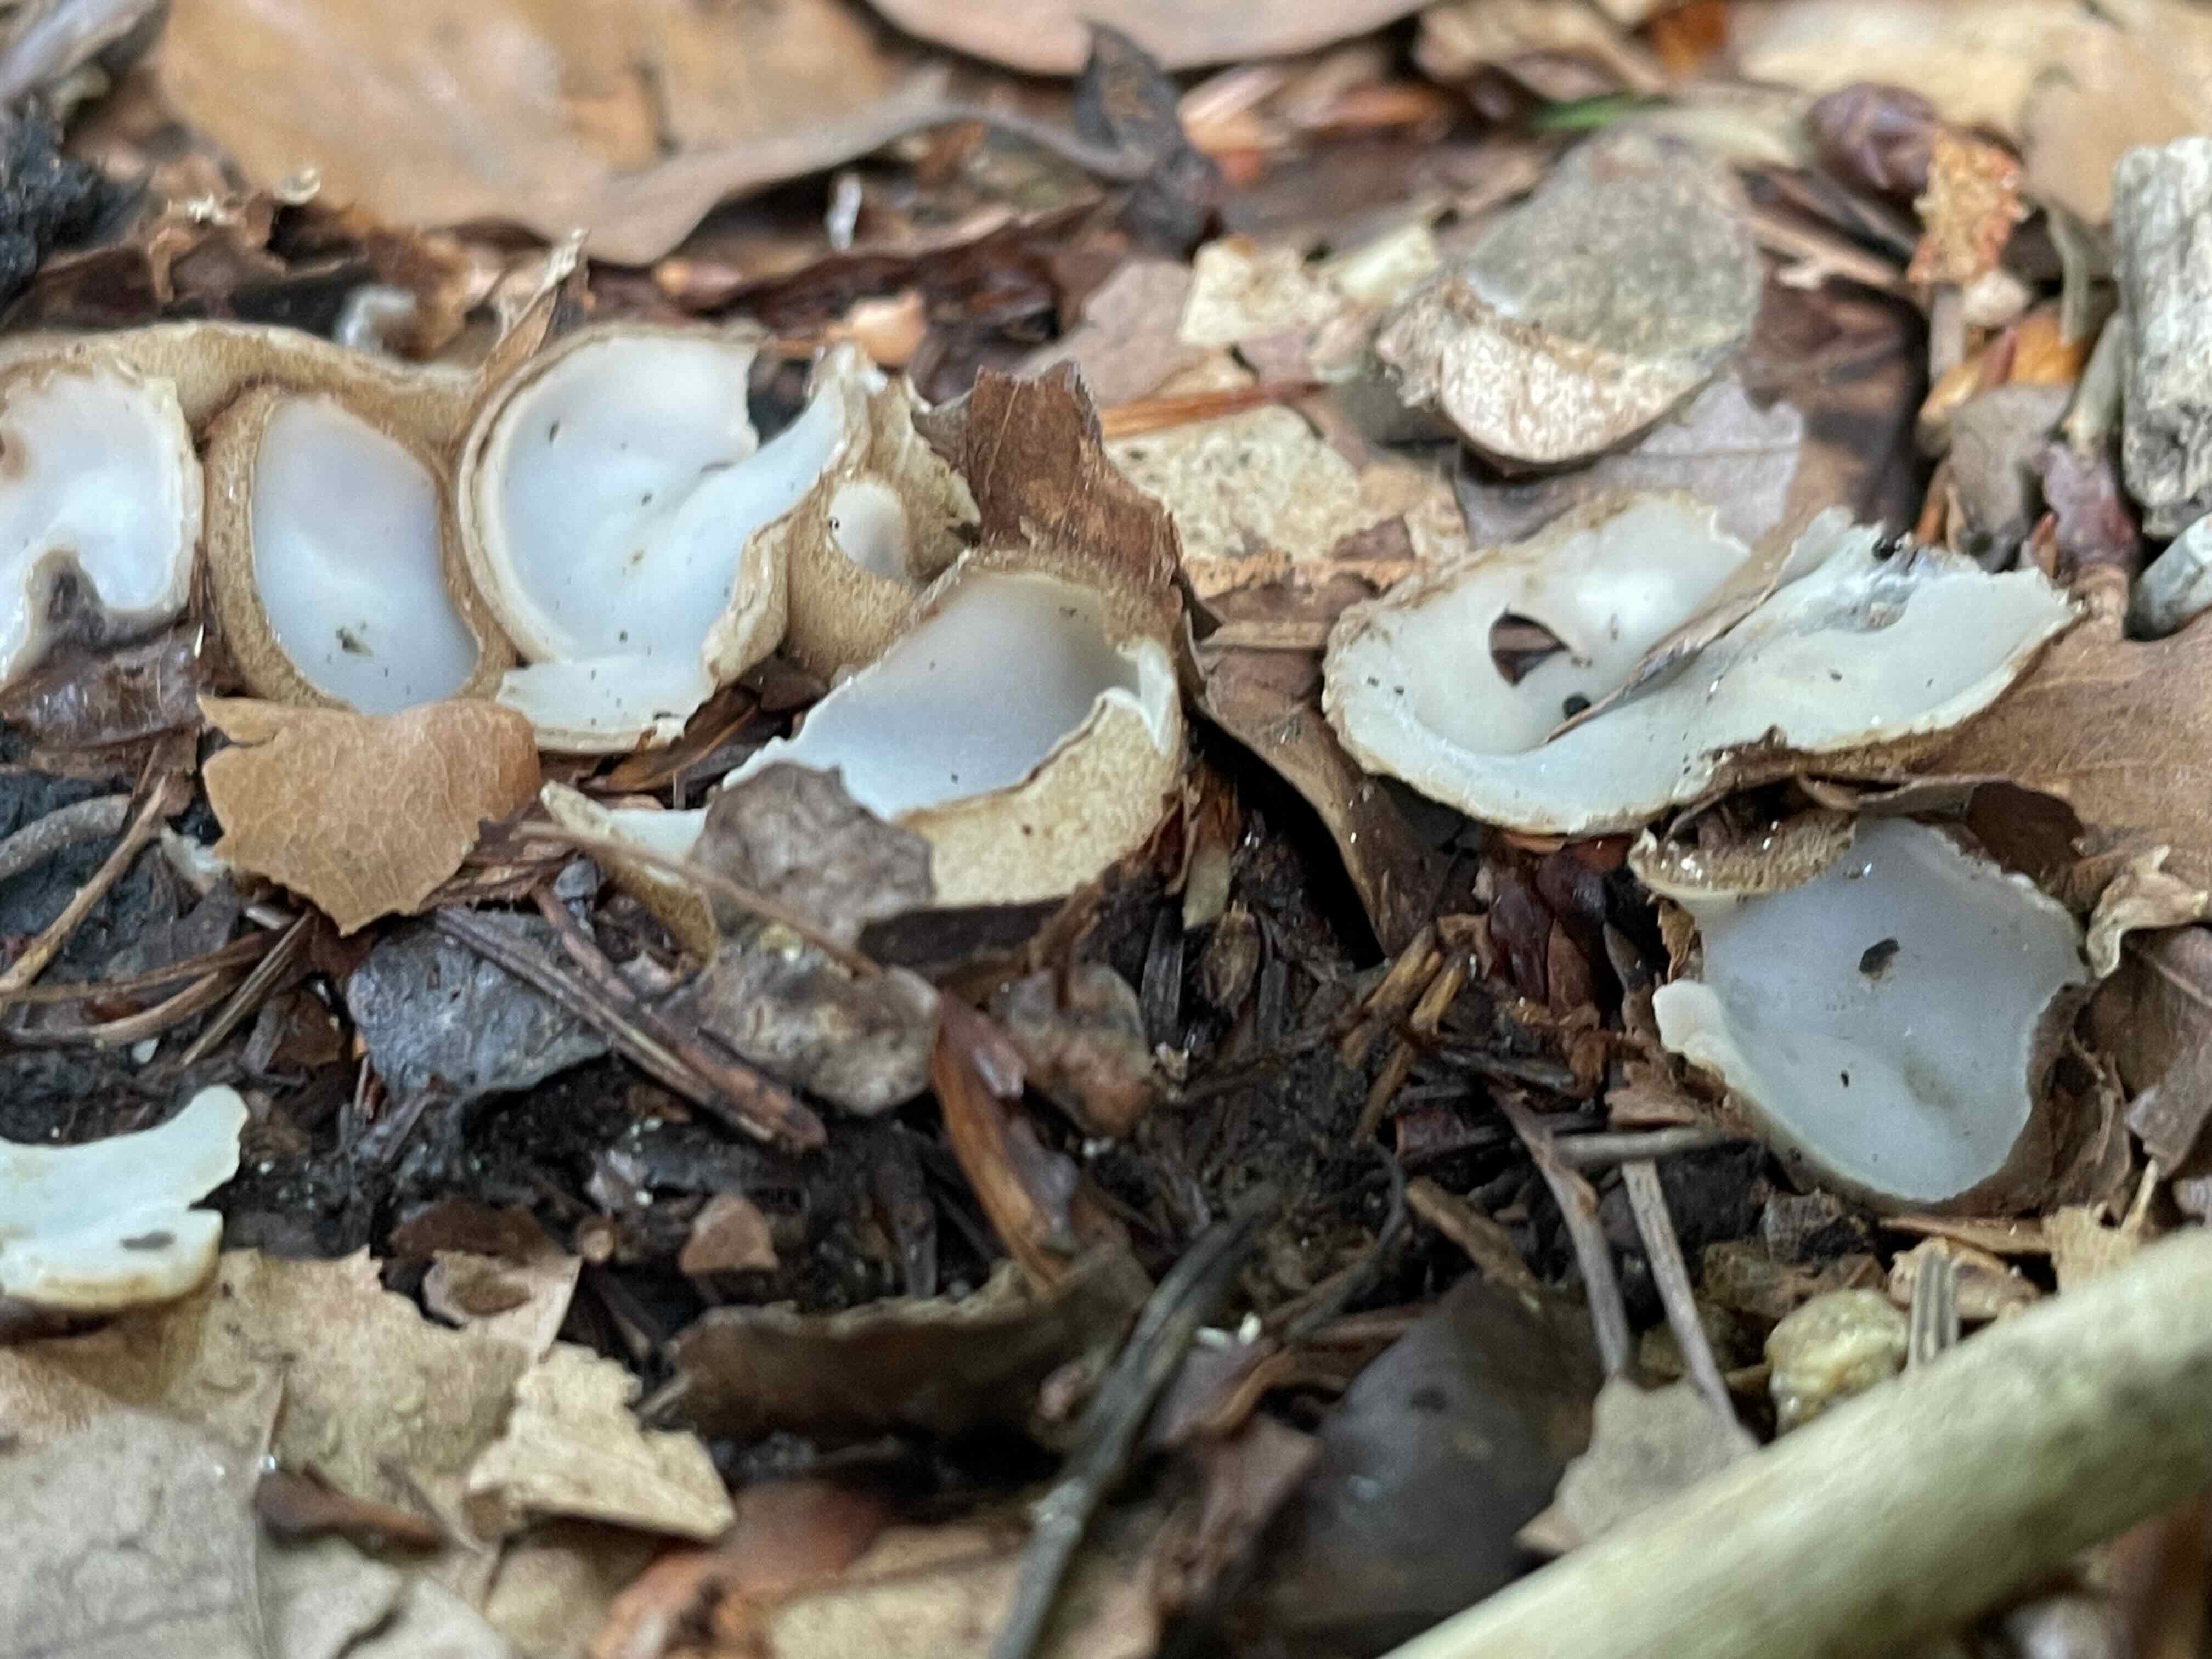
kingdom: Fungi
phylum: Ascomycota
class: Pezizomycetes
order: Pezizales
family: Pyronemataceae
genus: Humaria
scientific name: Humaria hemisphaerica
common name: halvkugleformet børstebæger
